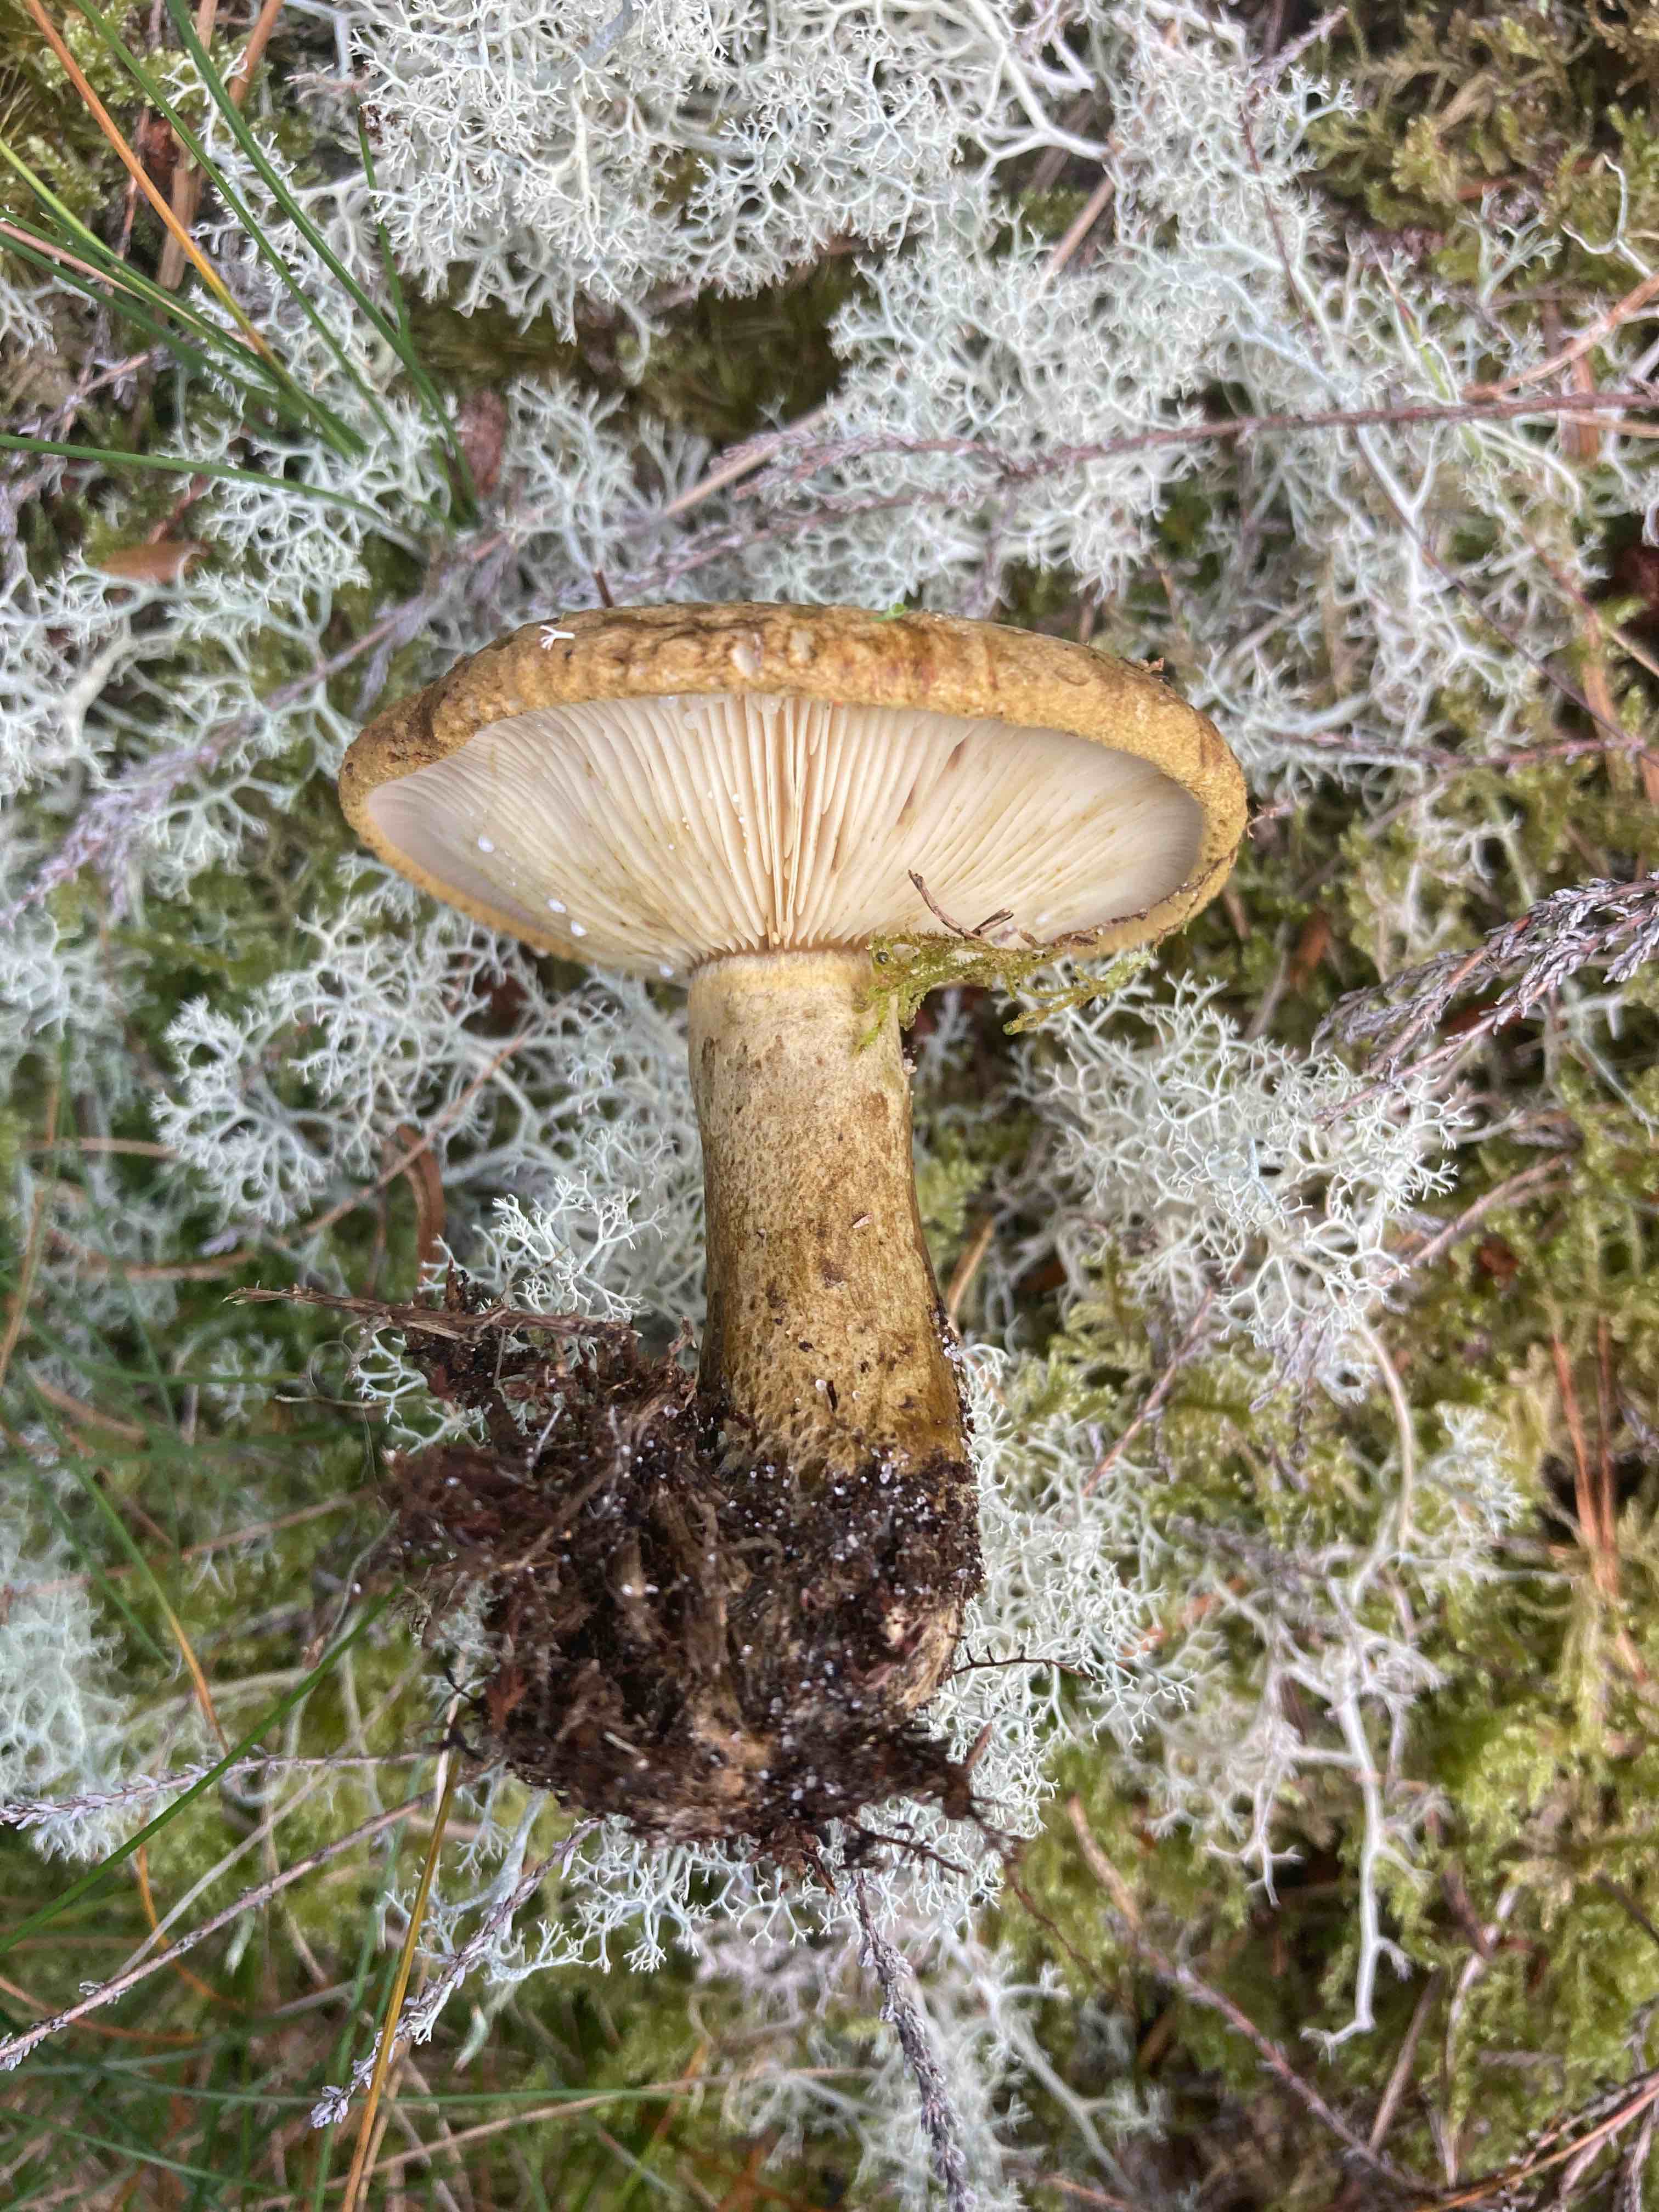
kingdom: Fungi
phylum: Basidiomycota
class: Agaricomycetes
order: Russulales
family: Russulaceae
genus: Lactarius
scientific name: Lactarius necator
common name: manddraber-mælkehat
